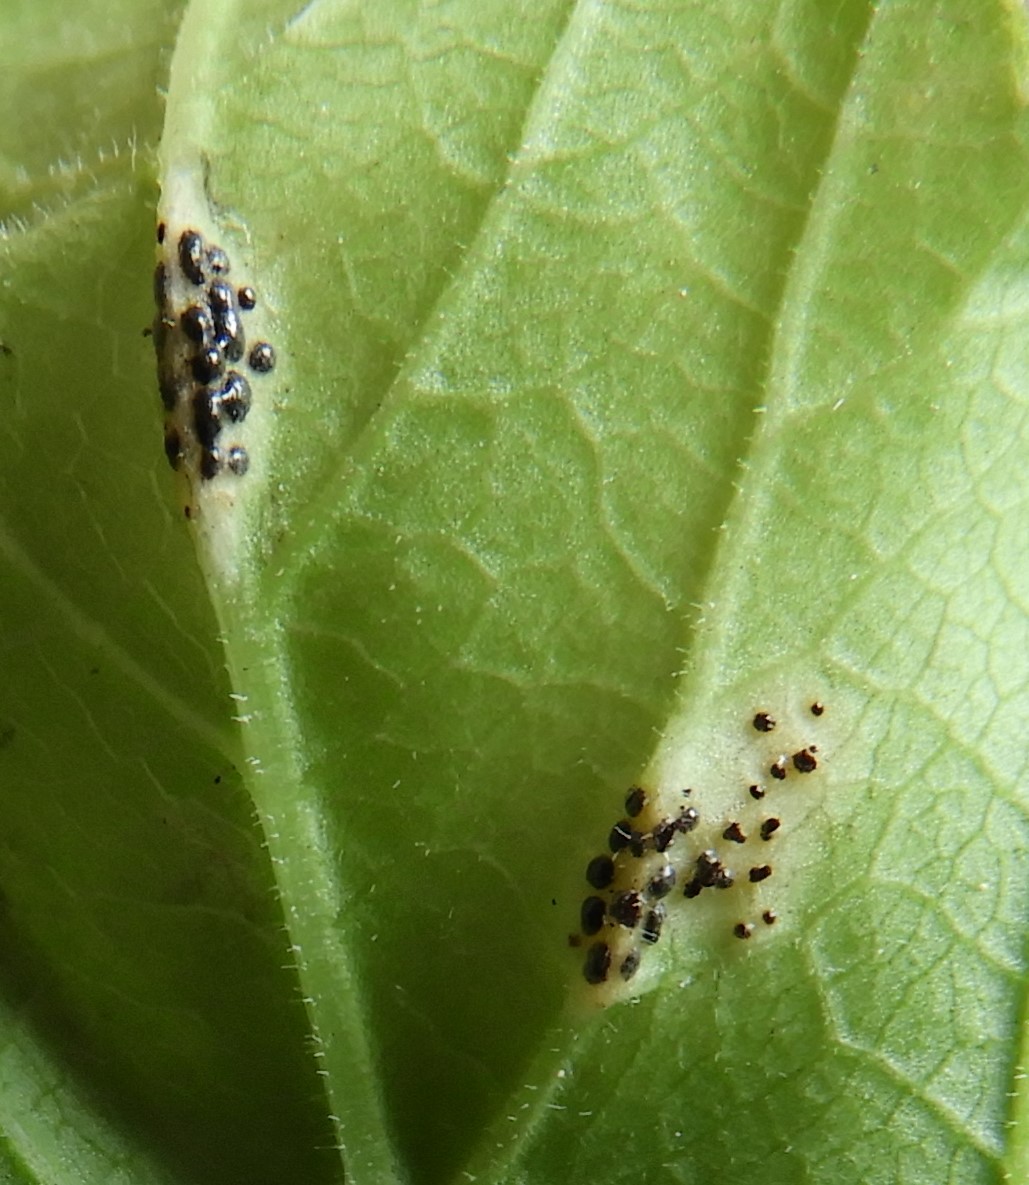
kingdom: Fungi
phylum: Basidiomycota
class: Pucciniomycetes
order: Pucciniales
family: Pucciniaceae
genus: Puccinia
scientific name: Puccinia
